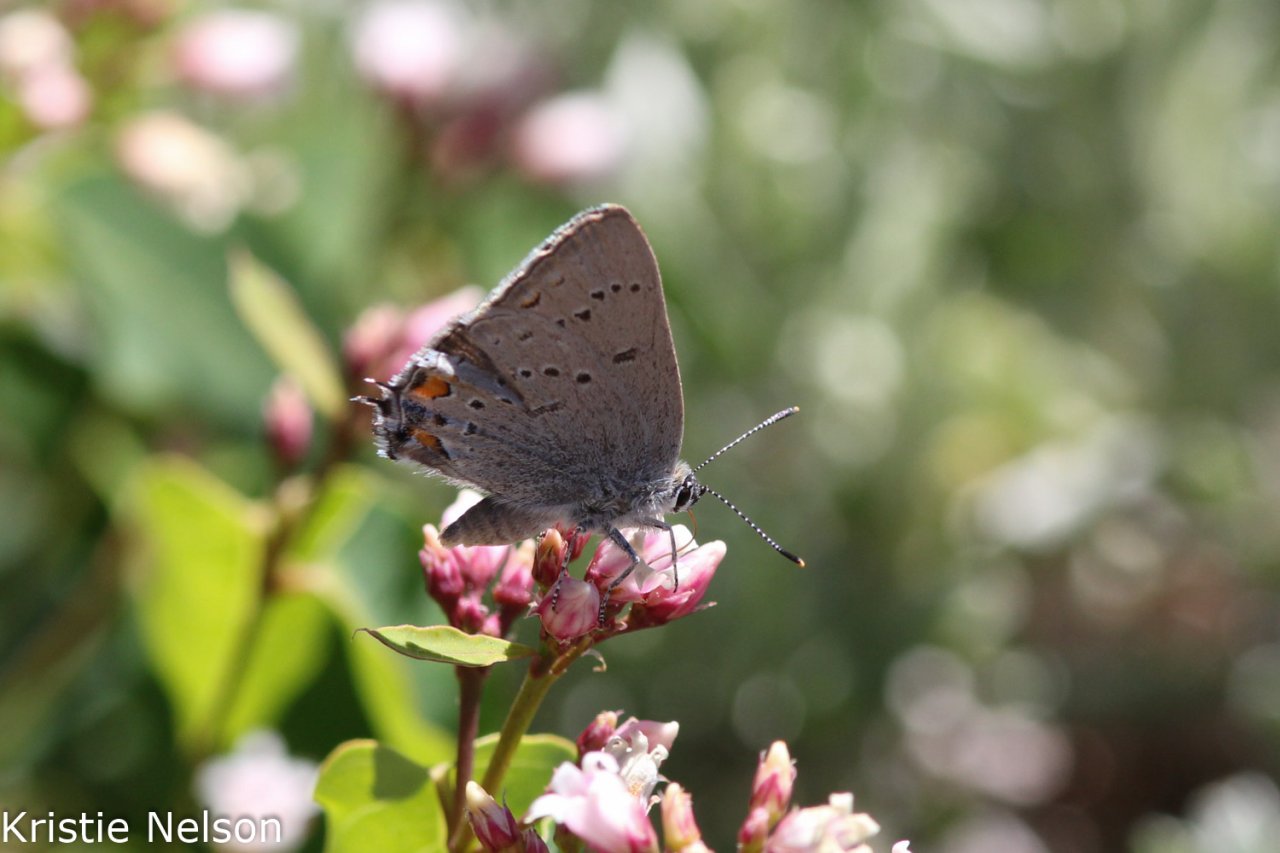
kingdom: Animalia
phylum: Arthropoda
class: Insecta
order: Lepidoptera
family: Lycaenidae
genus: Strymon
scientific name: Strymon acadica
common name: California Hairstreak
